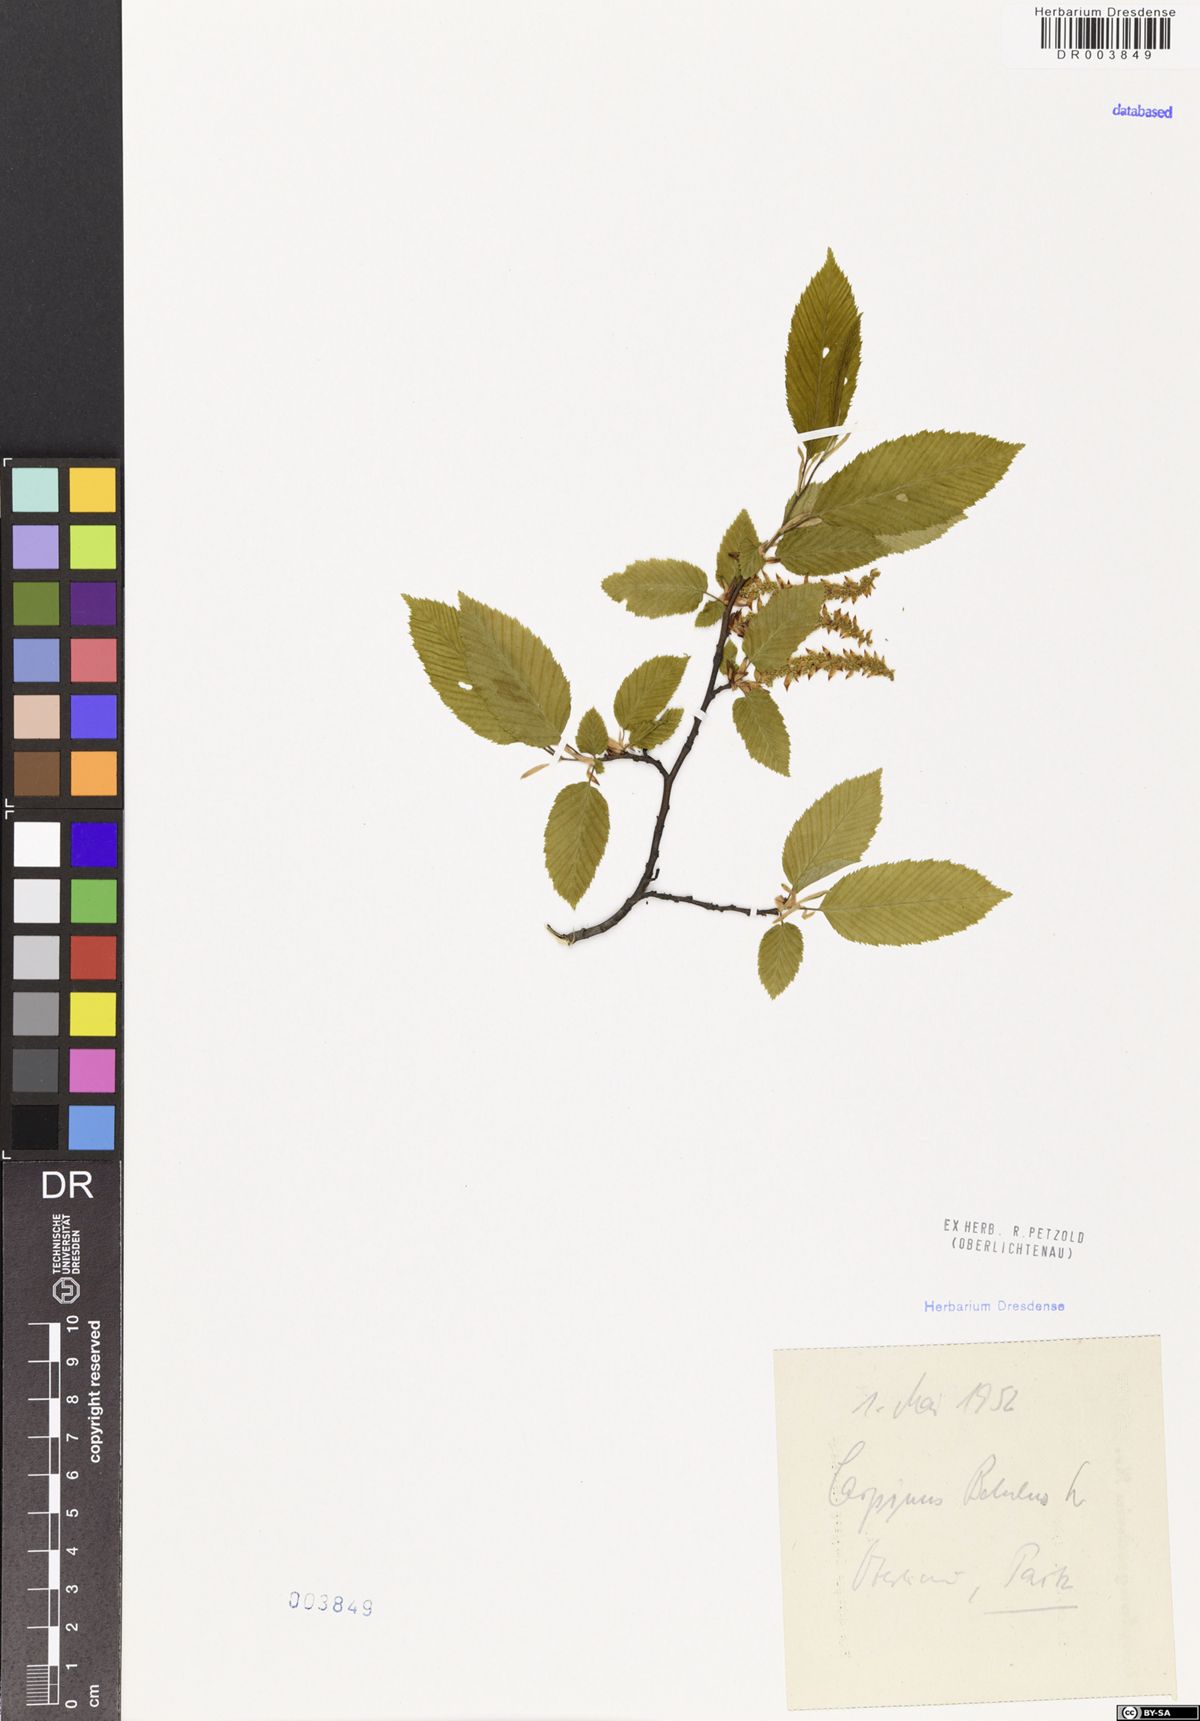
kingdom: Plantae
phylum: Tracheophyta
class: Magnoliopsida
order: Fagales
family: Betulaceae
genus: Carpinus
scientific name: Carpinus betulus
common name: Hornbeam
